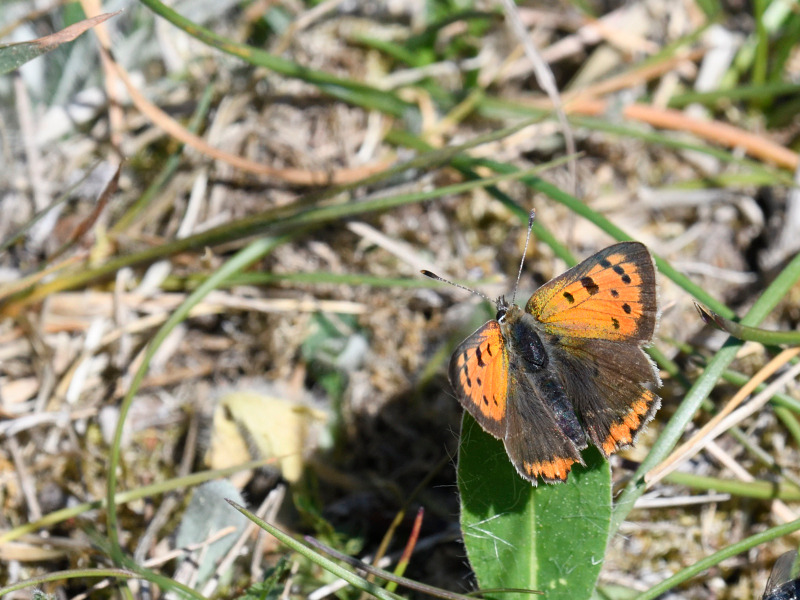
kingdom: Animalia
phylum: Arthropoda
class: Insecta
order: Lepidoptera
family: Lycaenidae
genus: Lycaena
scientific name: Lycaena phlaeas
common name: Lille ildfugl
